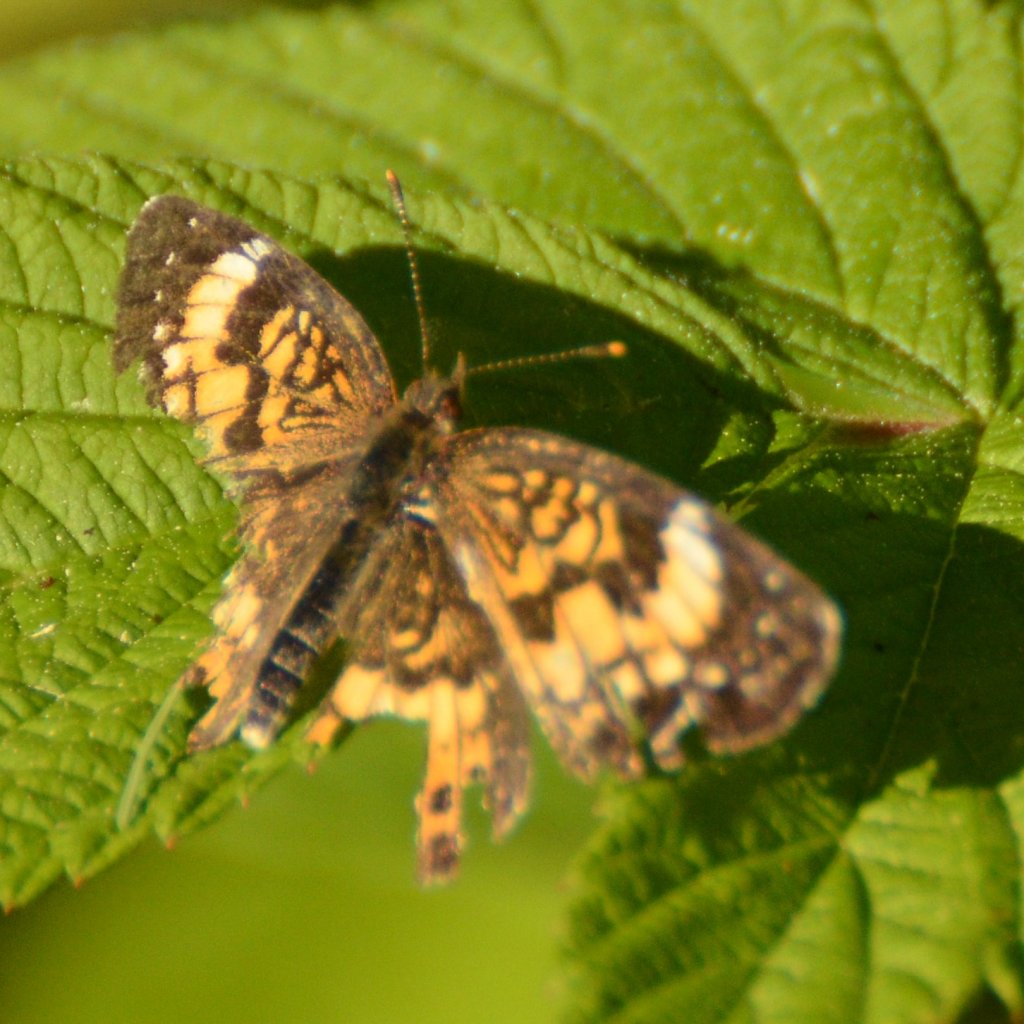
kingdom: Animalia
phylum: Arthropoda
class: Insecta
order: Lepidoptera
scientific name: Lepidoptera
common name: Butterflies
